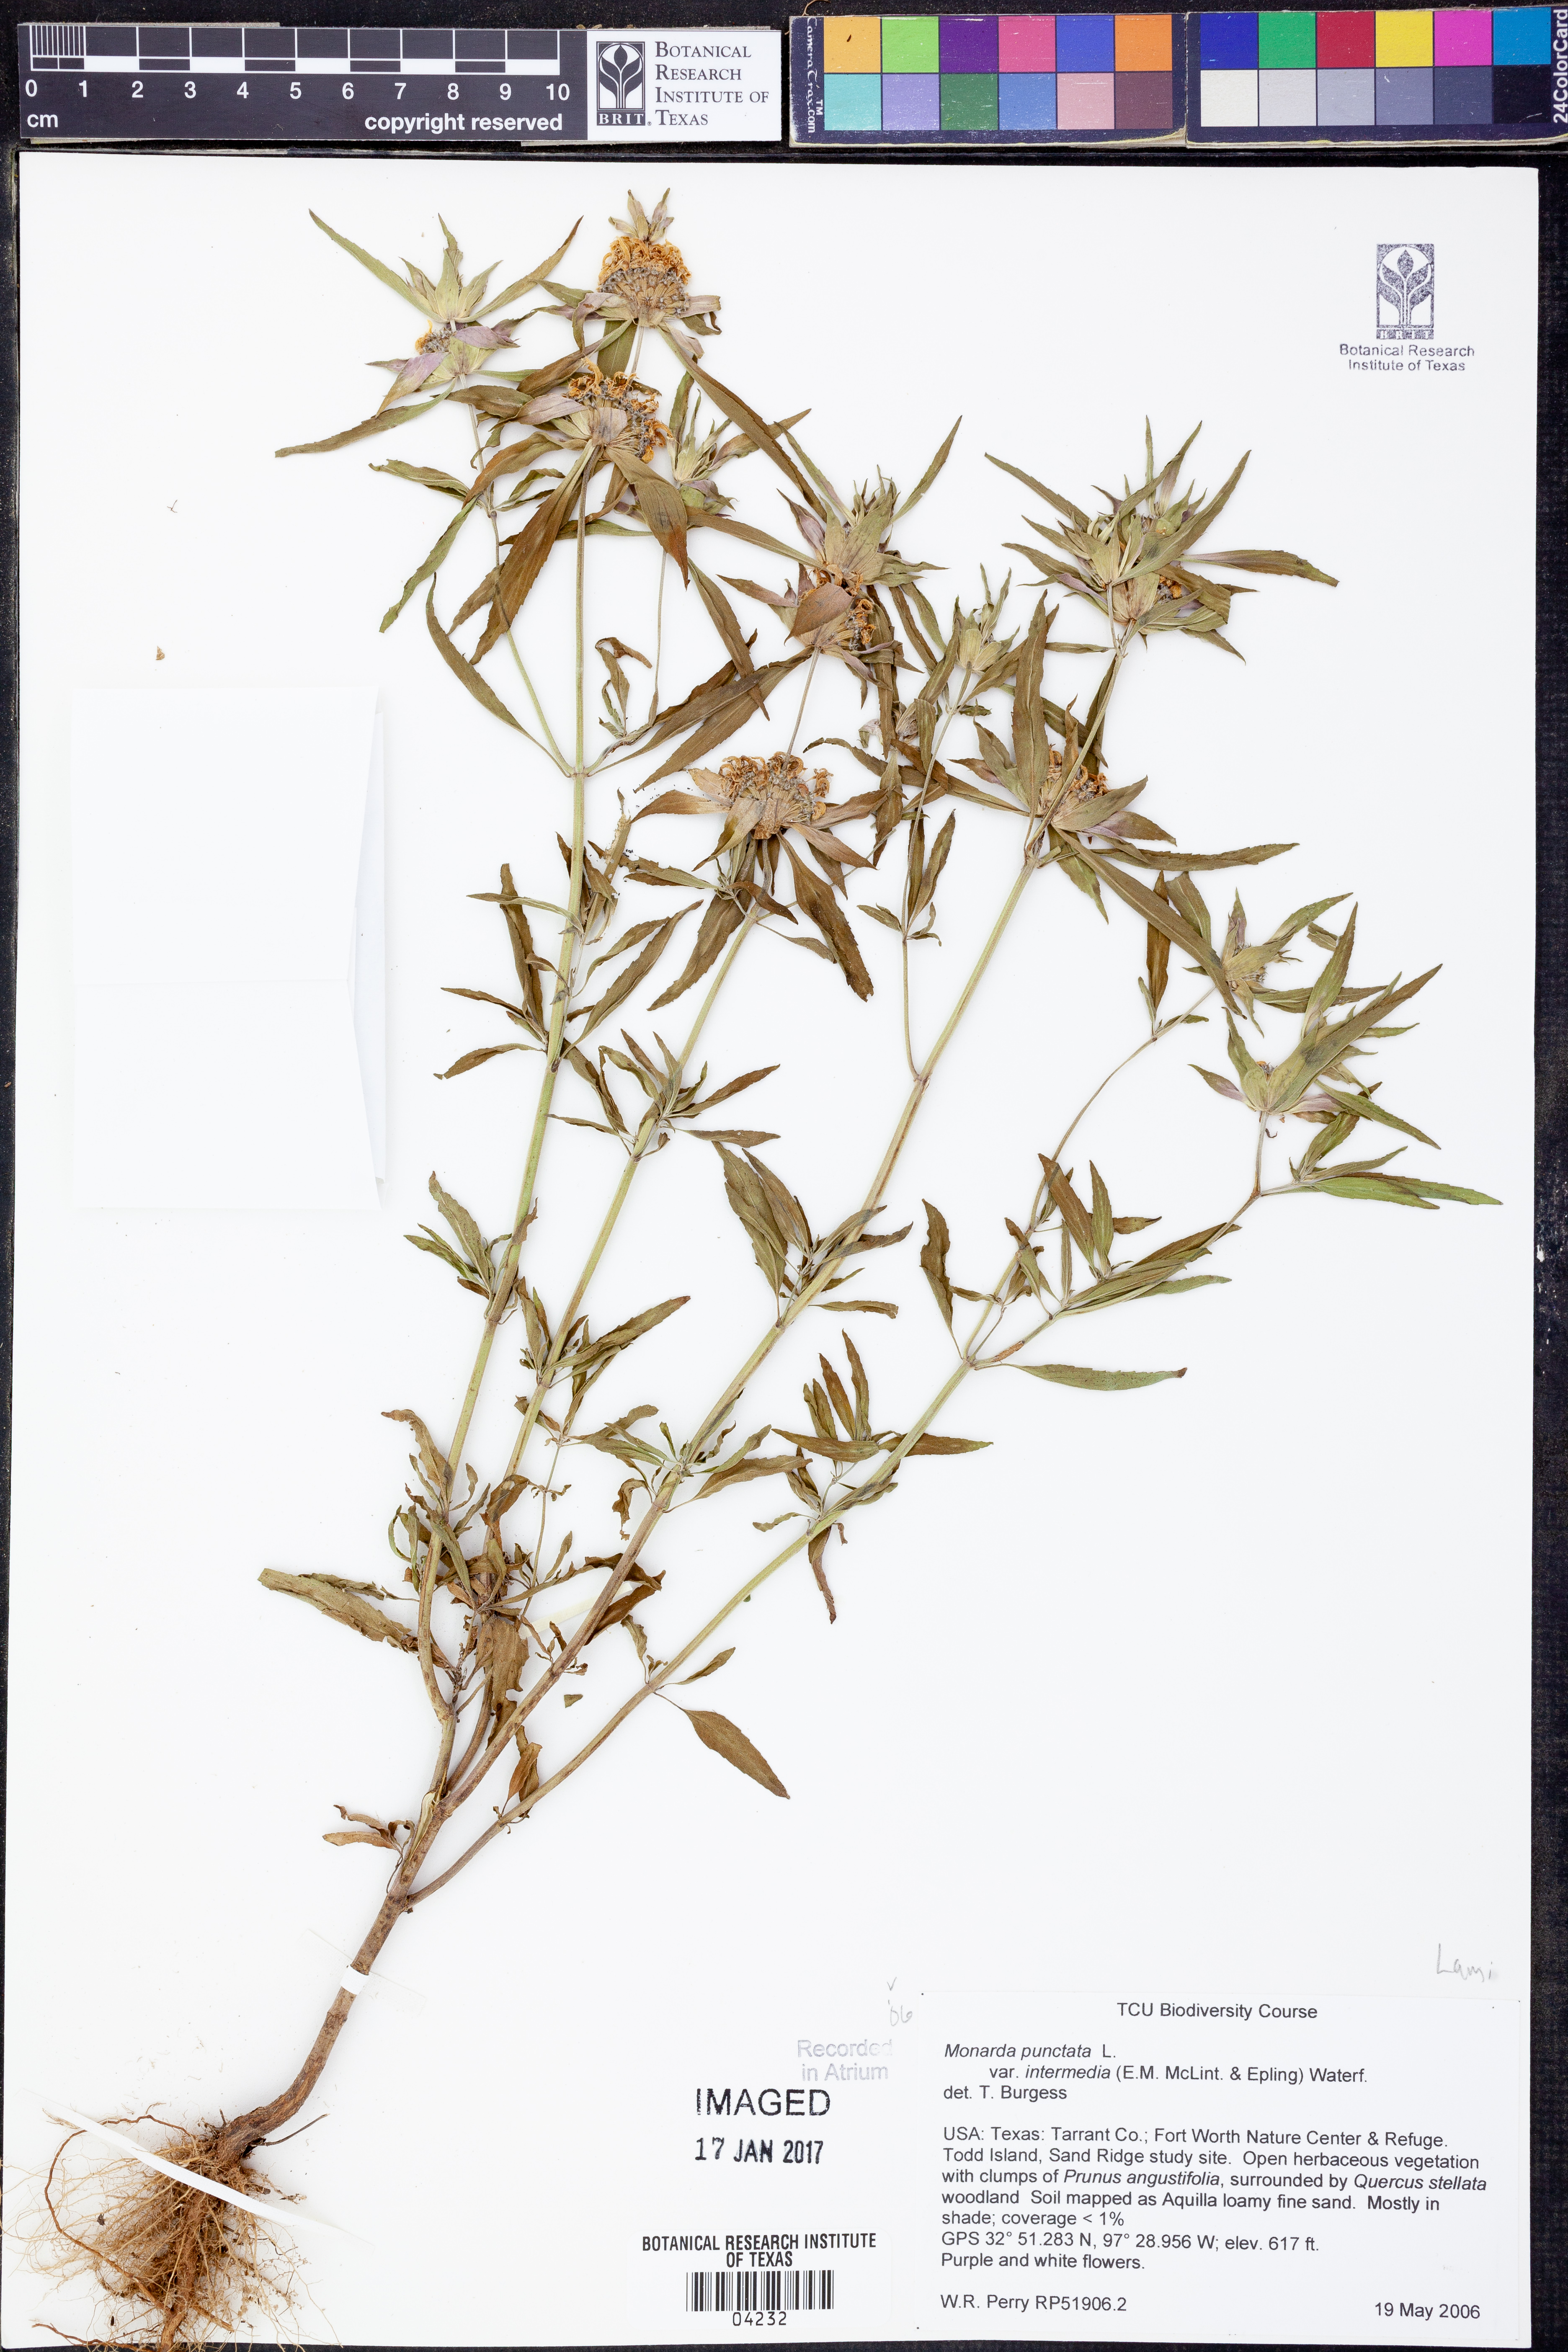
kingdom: Plantae
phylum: Tracheophyta
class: Magnoliopsida
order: Lamiales
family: Lamiaceae
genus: Monarda
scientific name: Monarda punctata
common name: Dotted monarda
